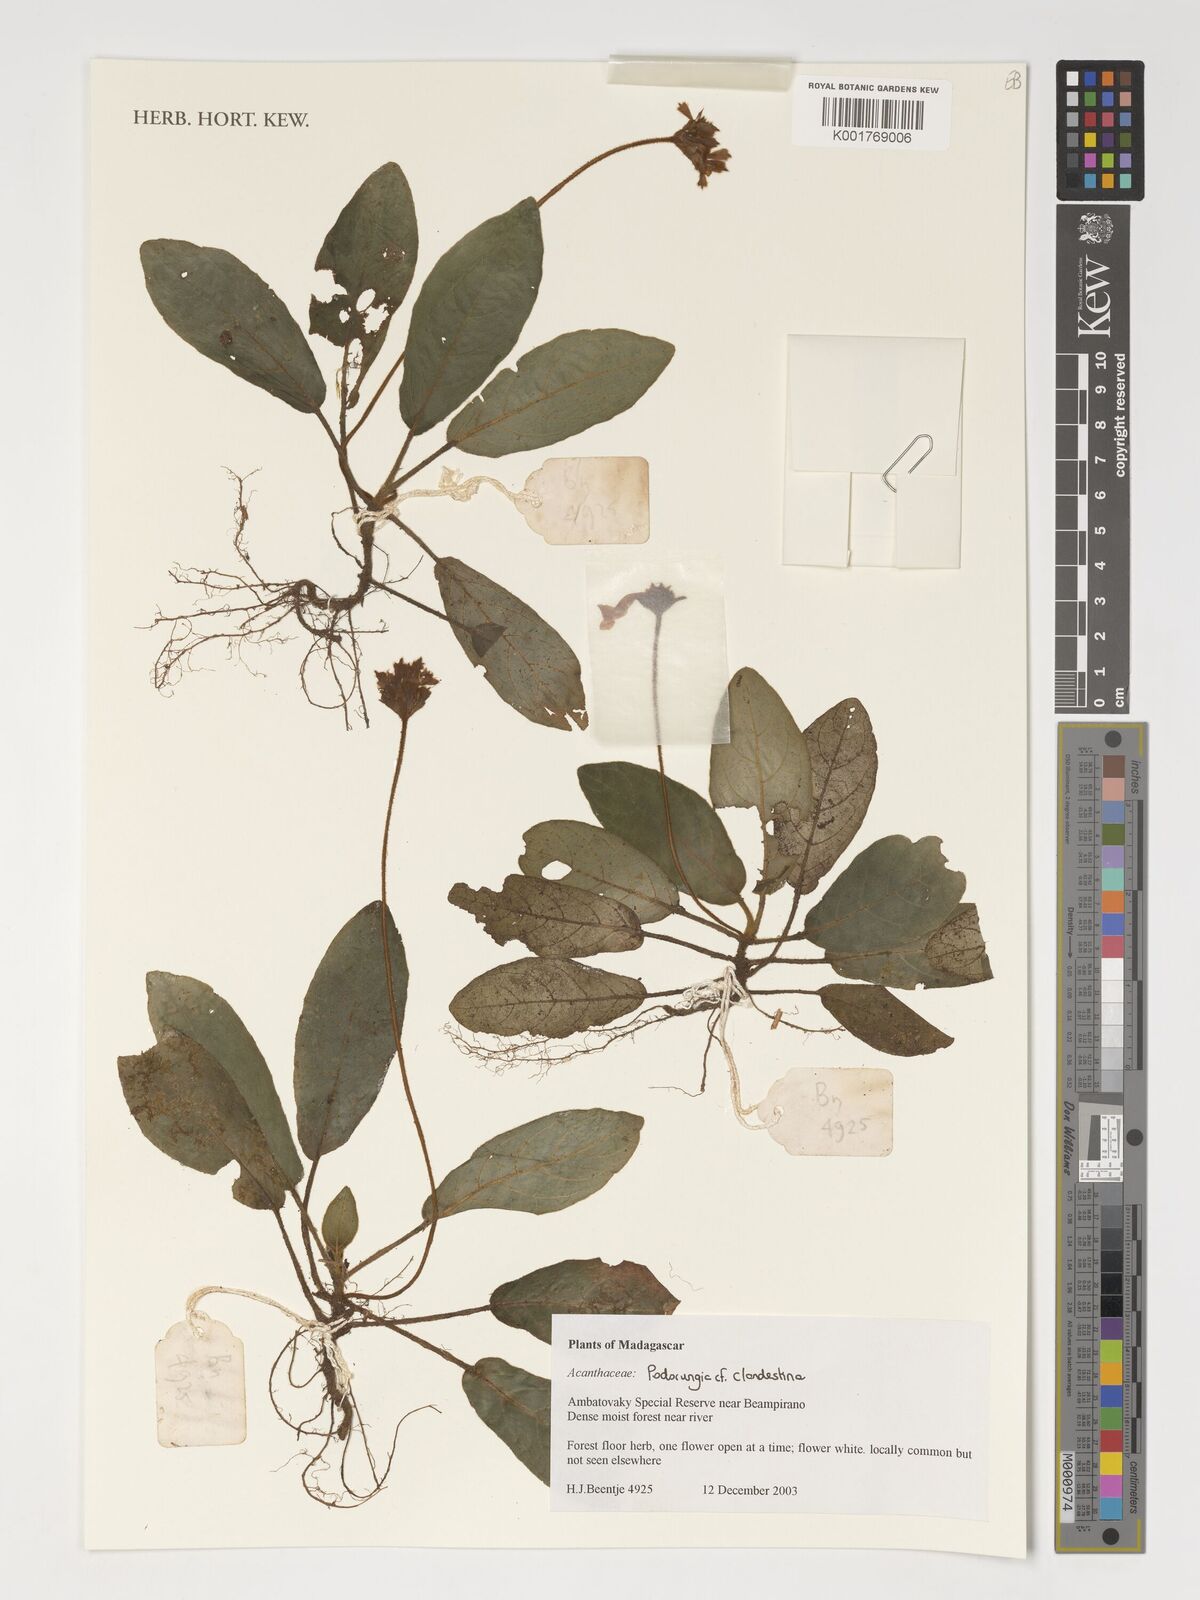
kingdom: Plantae
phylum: Tracheophyta
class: Magnoliopsida
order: Lamiales
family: Acanthaceae
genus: Podorungia
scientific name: Podorungia clandestina
